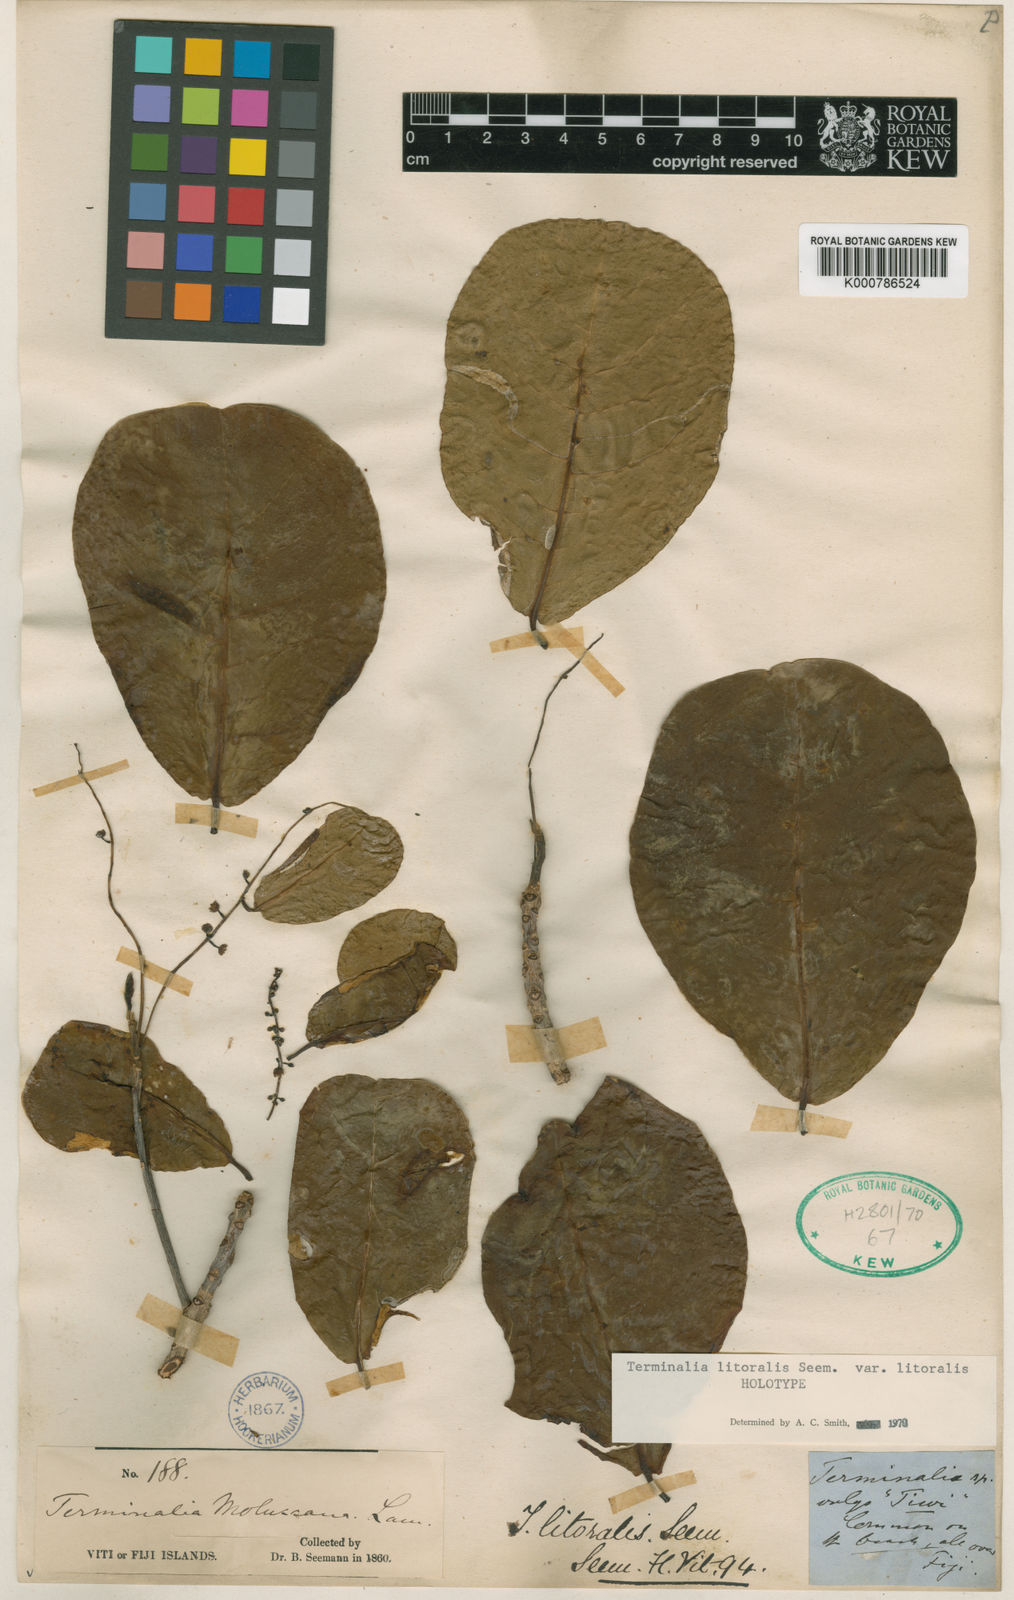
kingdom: Plantae
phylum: Tracheophyta
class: Magnoliopsida
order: Myrtales
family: Combretaceae
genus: Terminalia
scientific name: Terminalia litoralis
